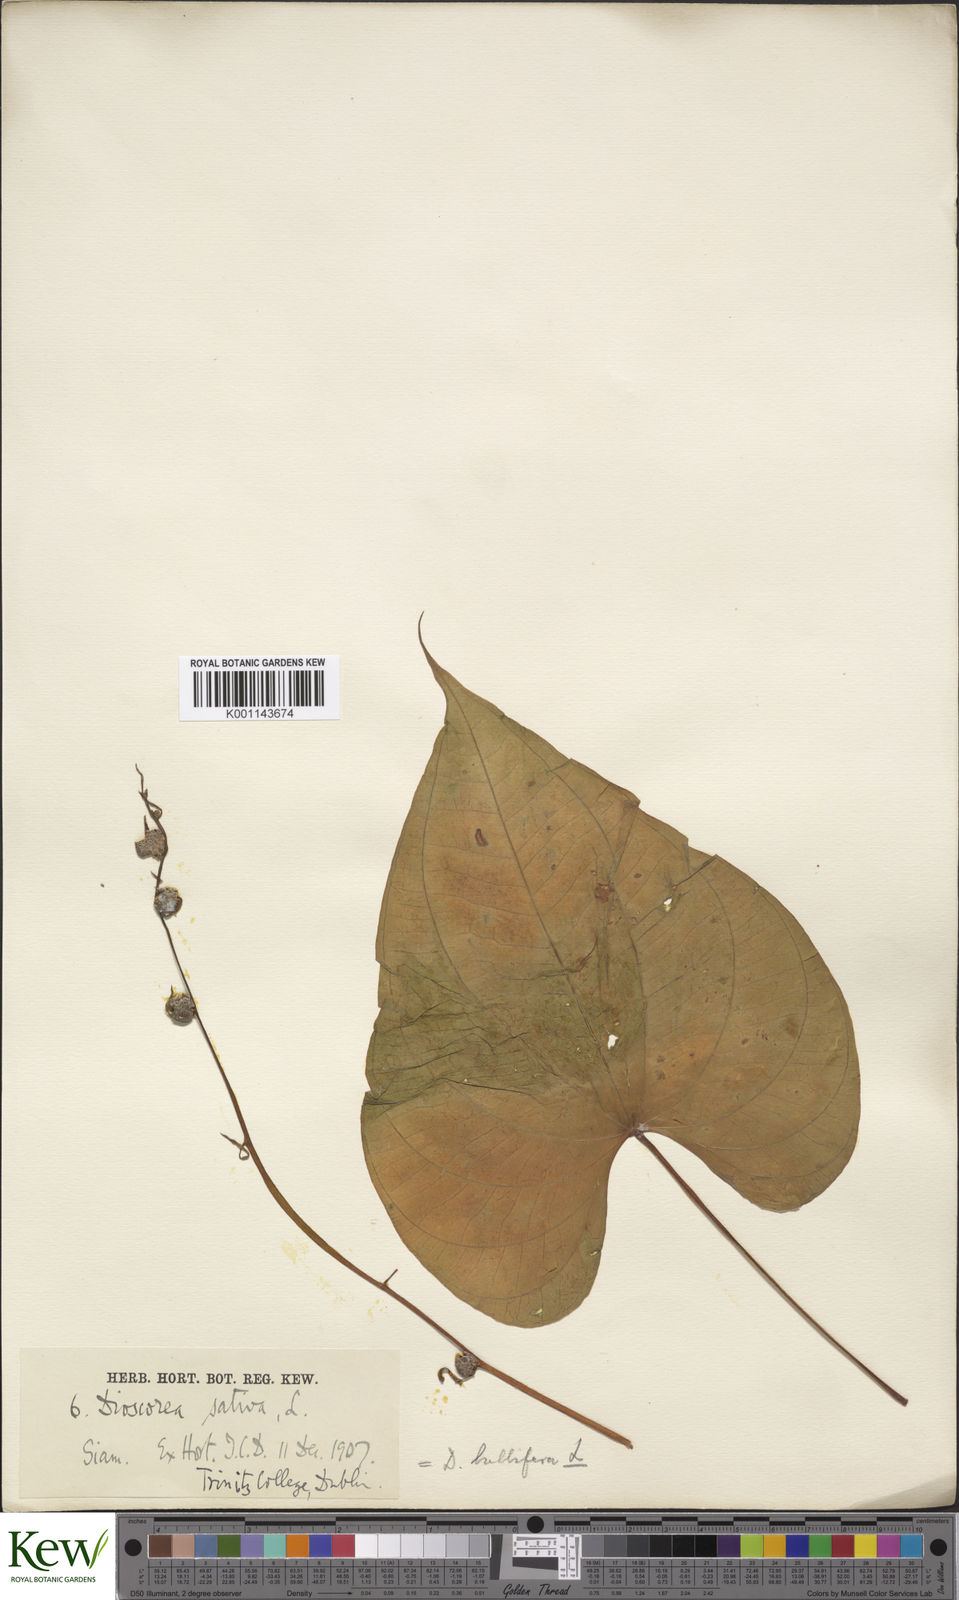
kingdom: Plantae
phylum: Tracheophyta
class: Liliopsida
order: Dioscoreales
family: Dioscoreaceae
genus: Dioscorea
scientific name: Dioscorea bulbifera
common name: Air yam
